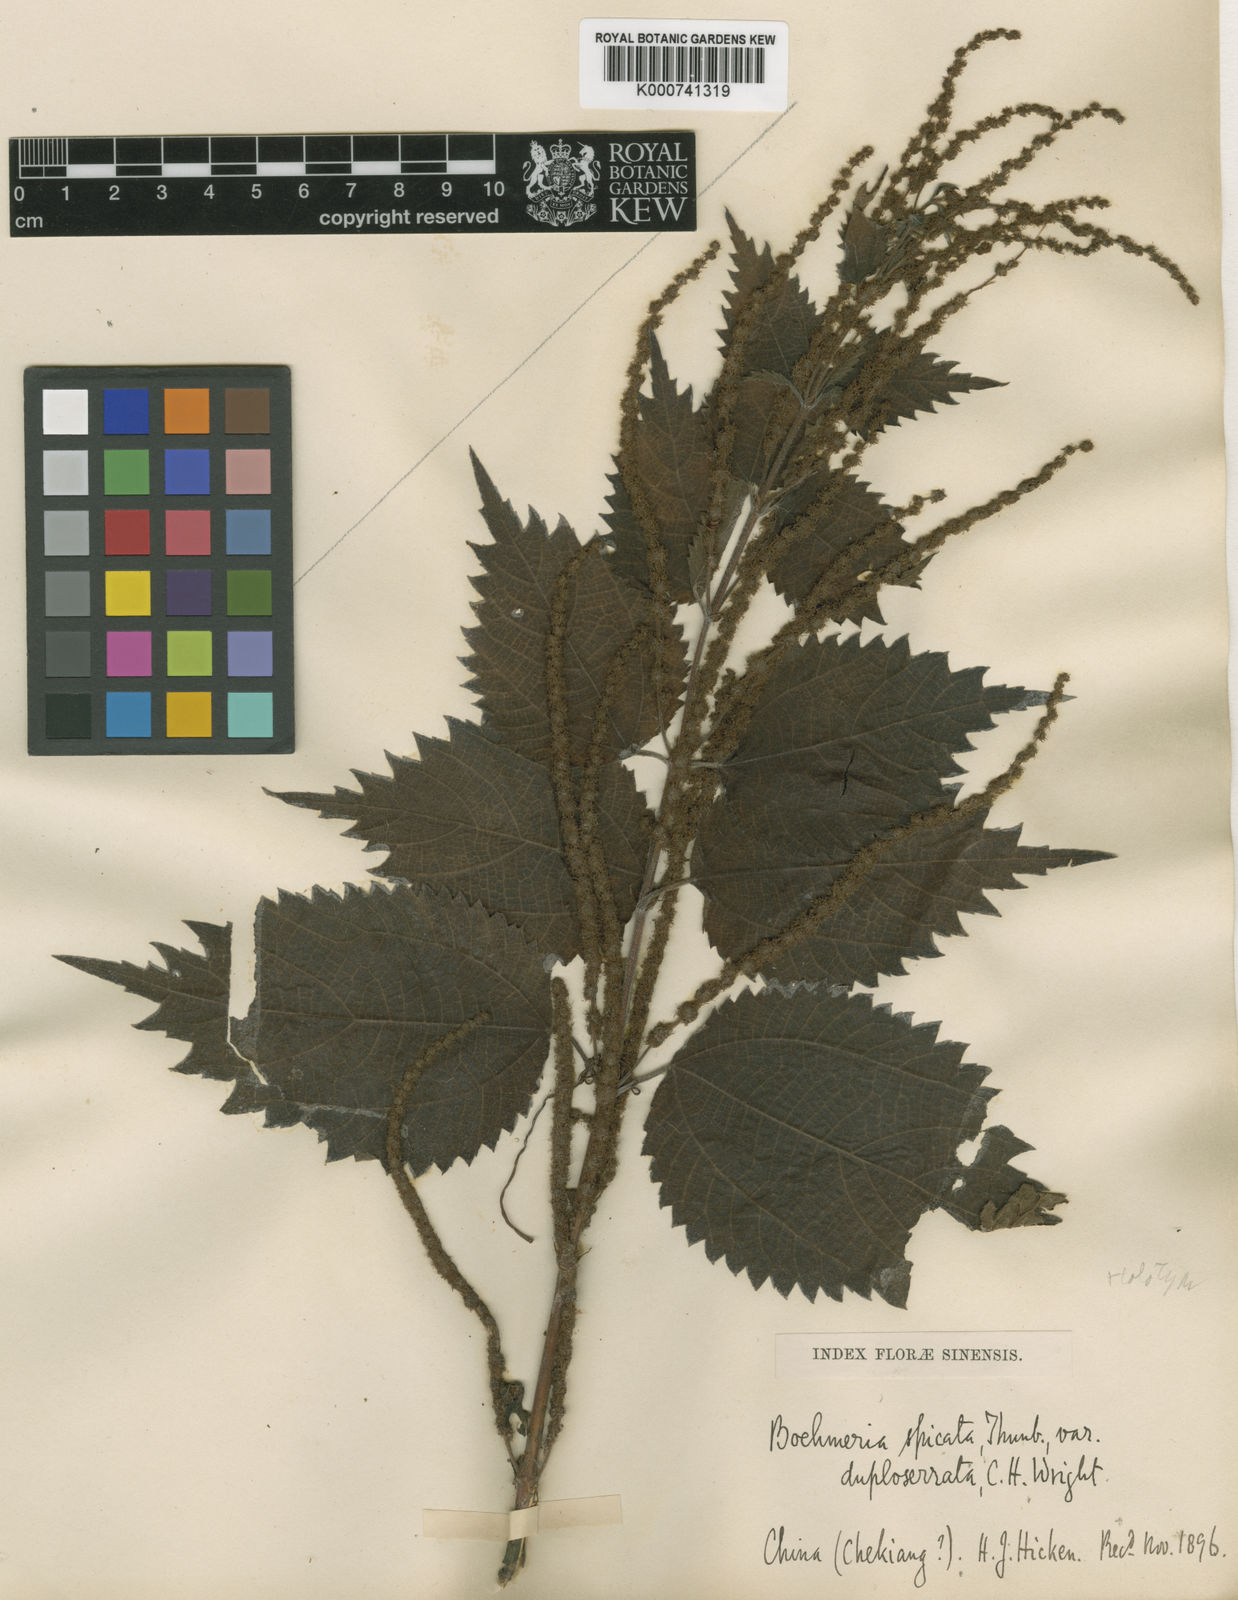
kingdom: Plantae
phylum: Tracheophyta
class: Magnoliopsida
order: Rosales
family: Urticaceae
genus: Boehmeria
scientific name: Boehmeria japonica
